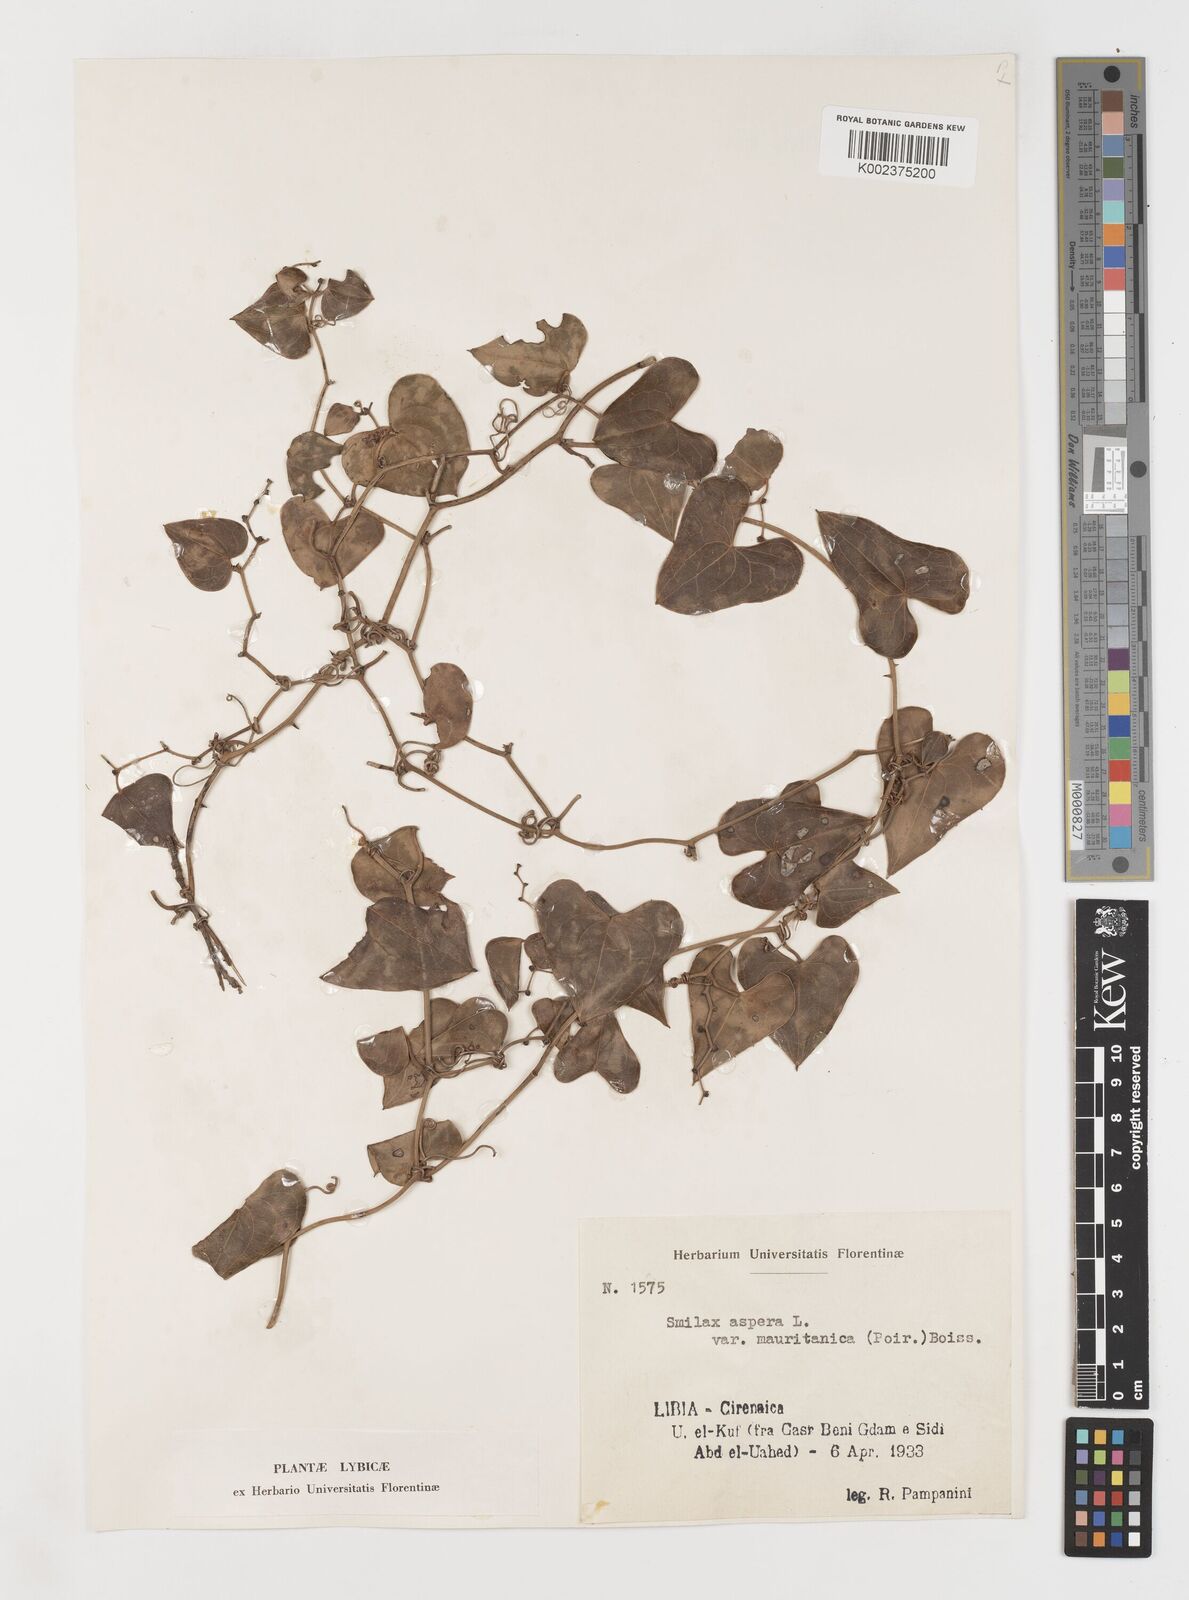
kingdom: Plantae
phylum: Tracheophyta
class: Liliopsida
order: Liliales
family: Smilacaceae
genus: Smilax
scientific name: Smilax aspera
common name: Common smilax
